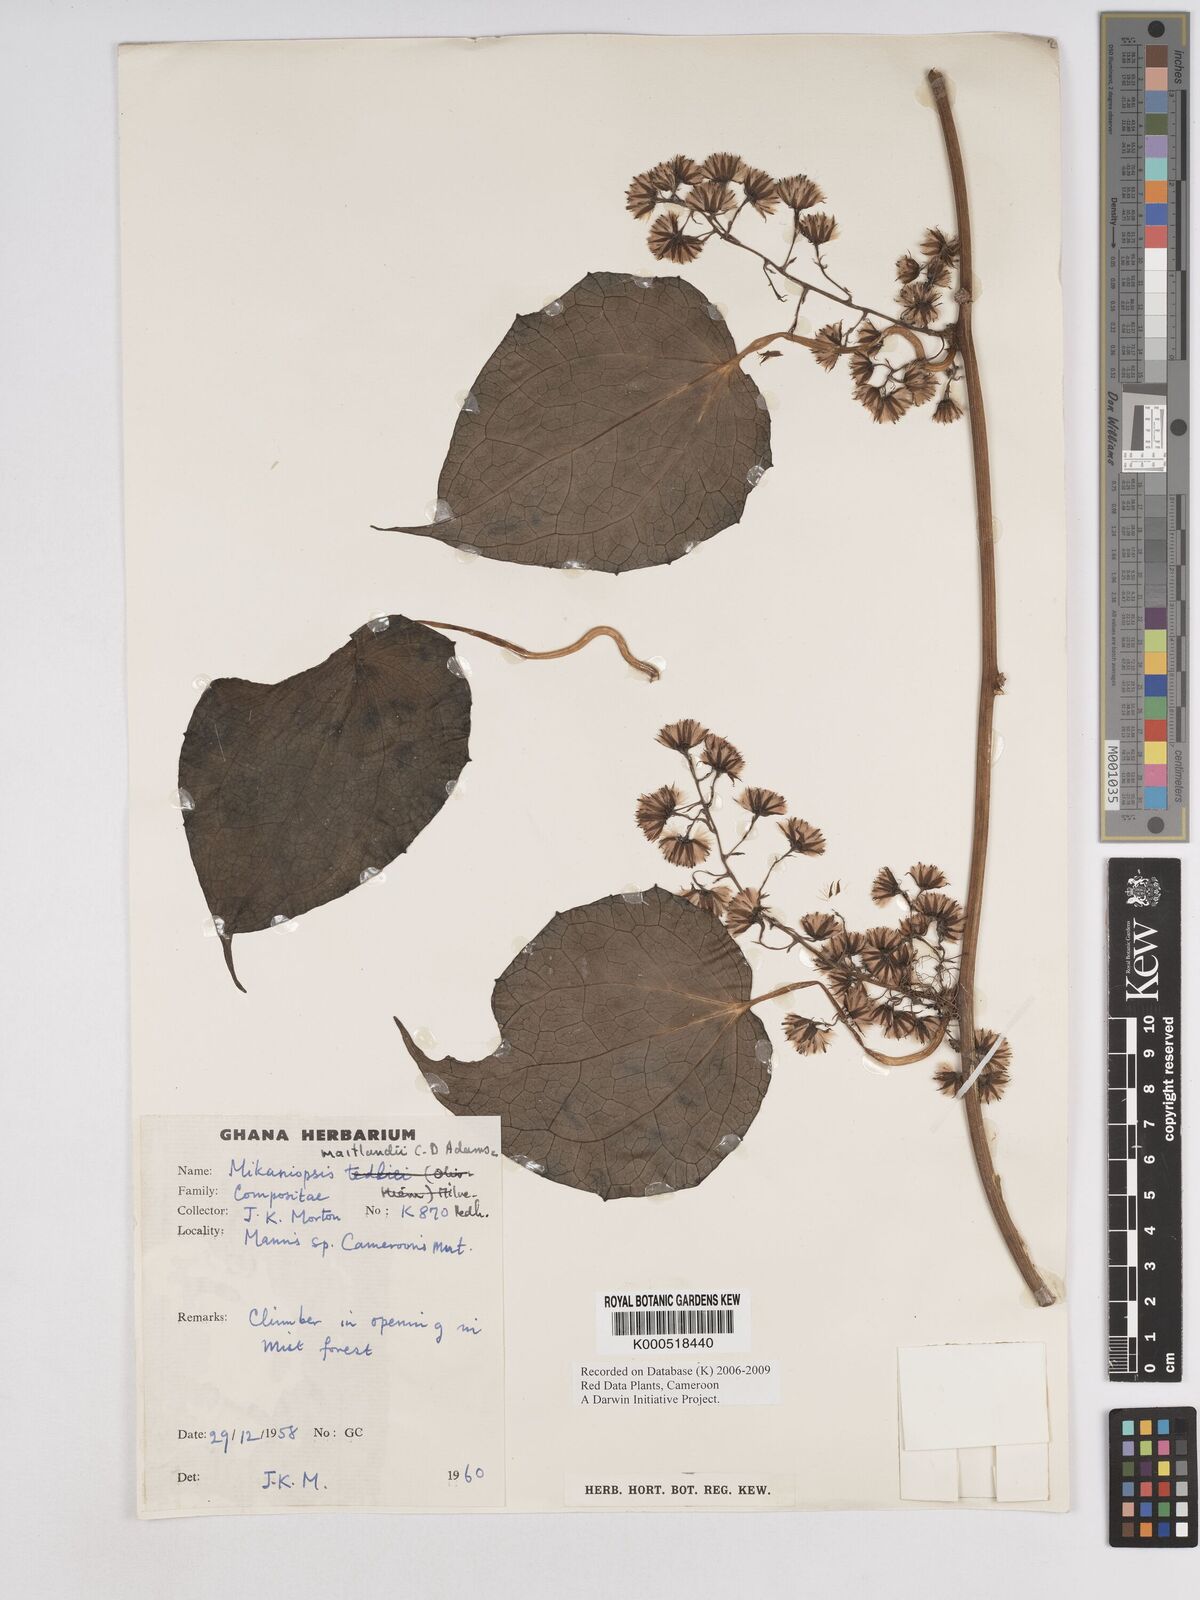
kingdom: Plantae
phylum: Tracheophyta
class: Magnoliopsida
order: Asterales
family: Asteraceae
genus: Mikaniopsis
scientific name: Mikaniopsis tedliei
